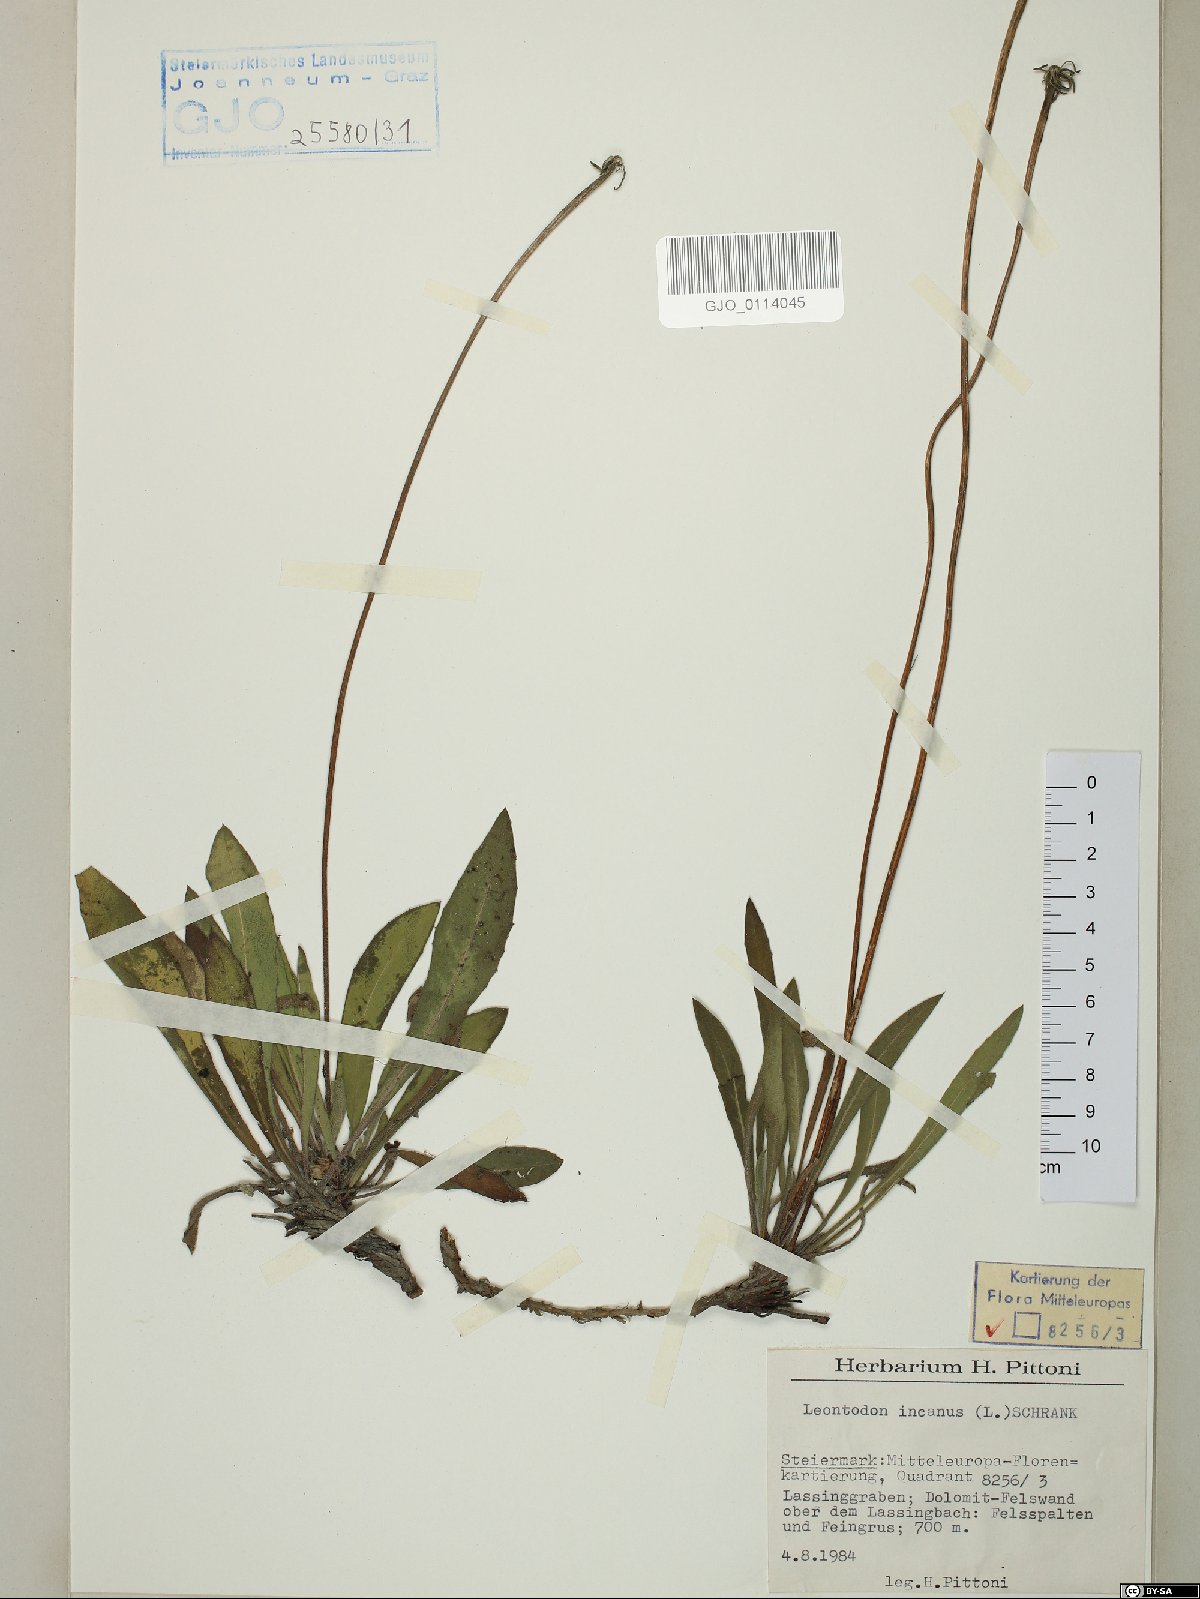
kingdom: Plantae
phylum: Tracheophyta
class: Magnoliopsida
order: Asterales
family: Asteraceae
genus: Leontodon
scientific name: Leontodon incanus
